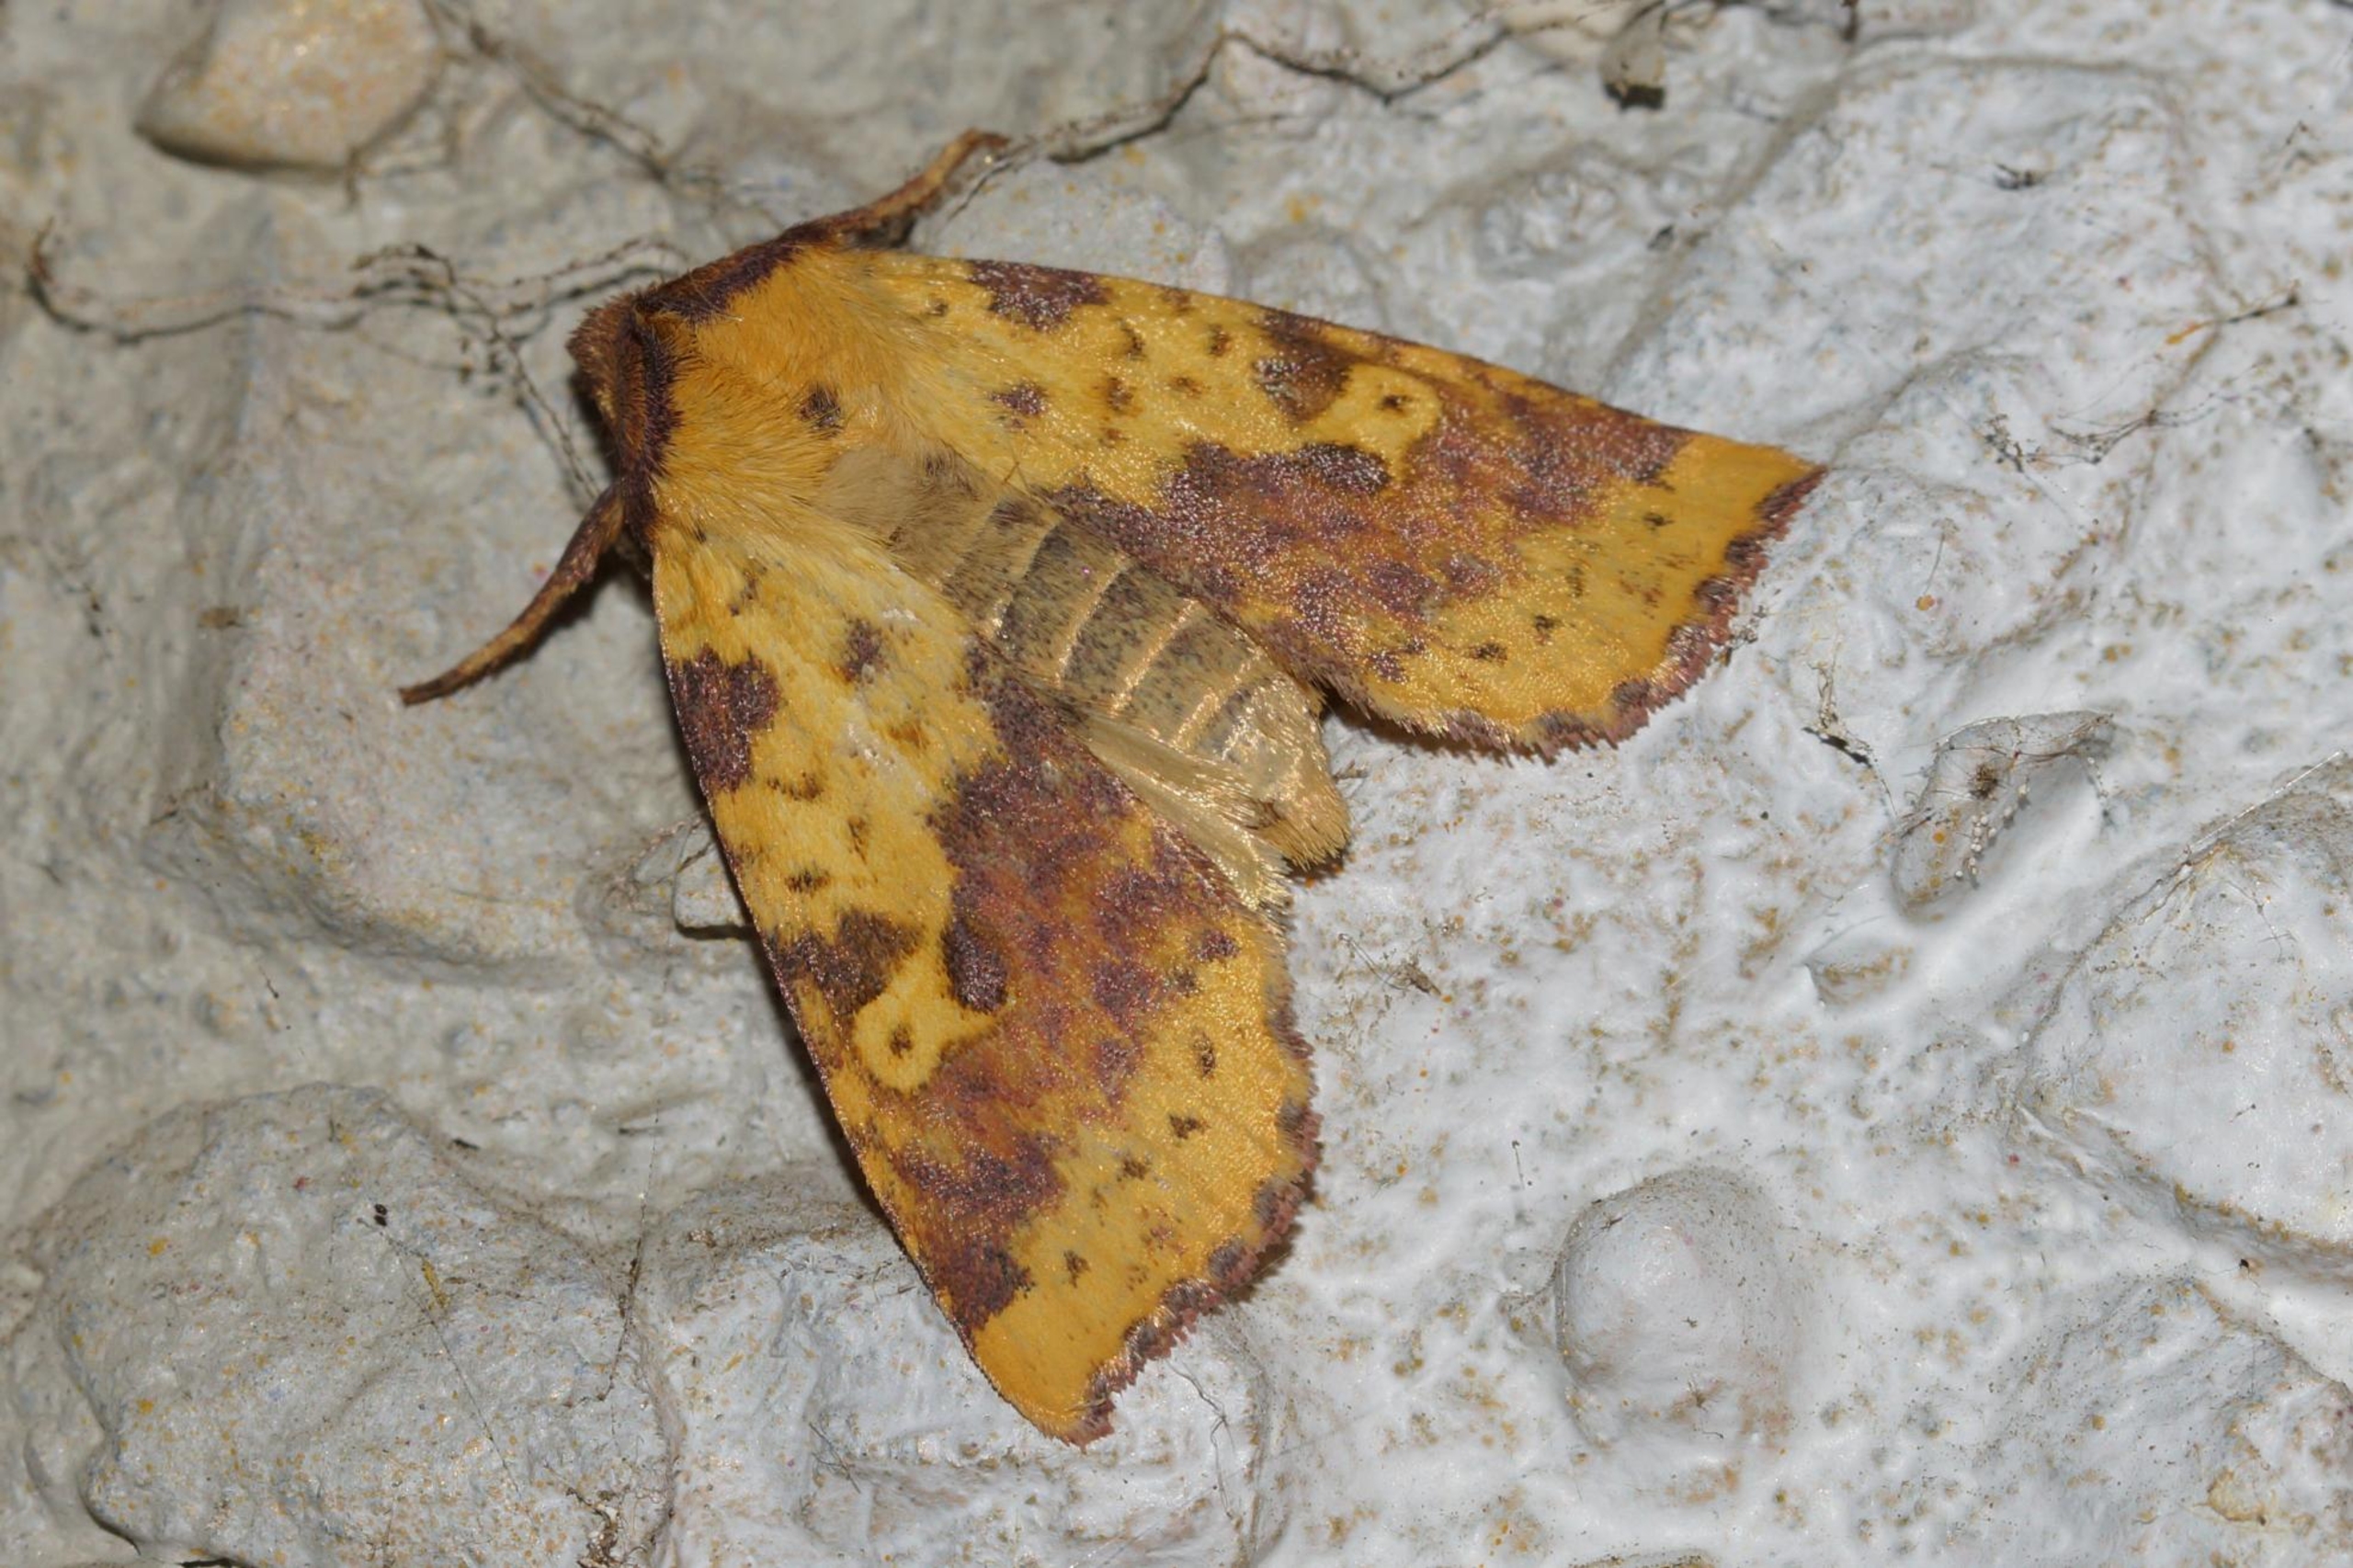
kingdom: Animalia
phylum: Arthropoda
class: Insecta
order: Lepidoptera
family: Noctuidae
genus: Xanthia
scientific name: Xanthia togata
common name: Toga-septemberugle
